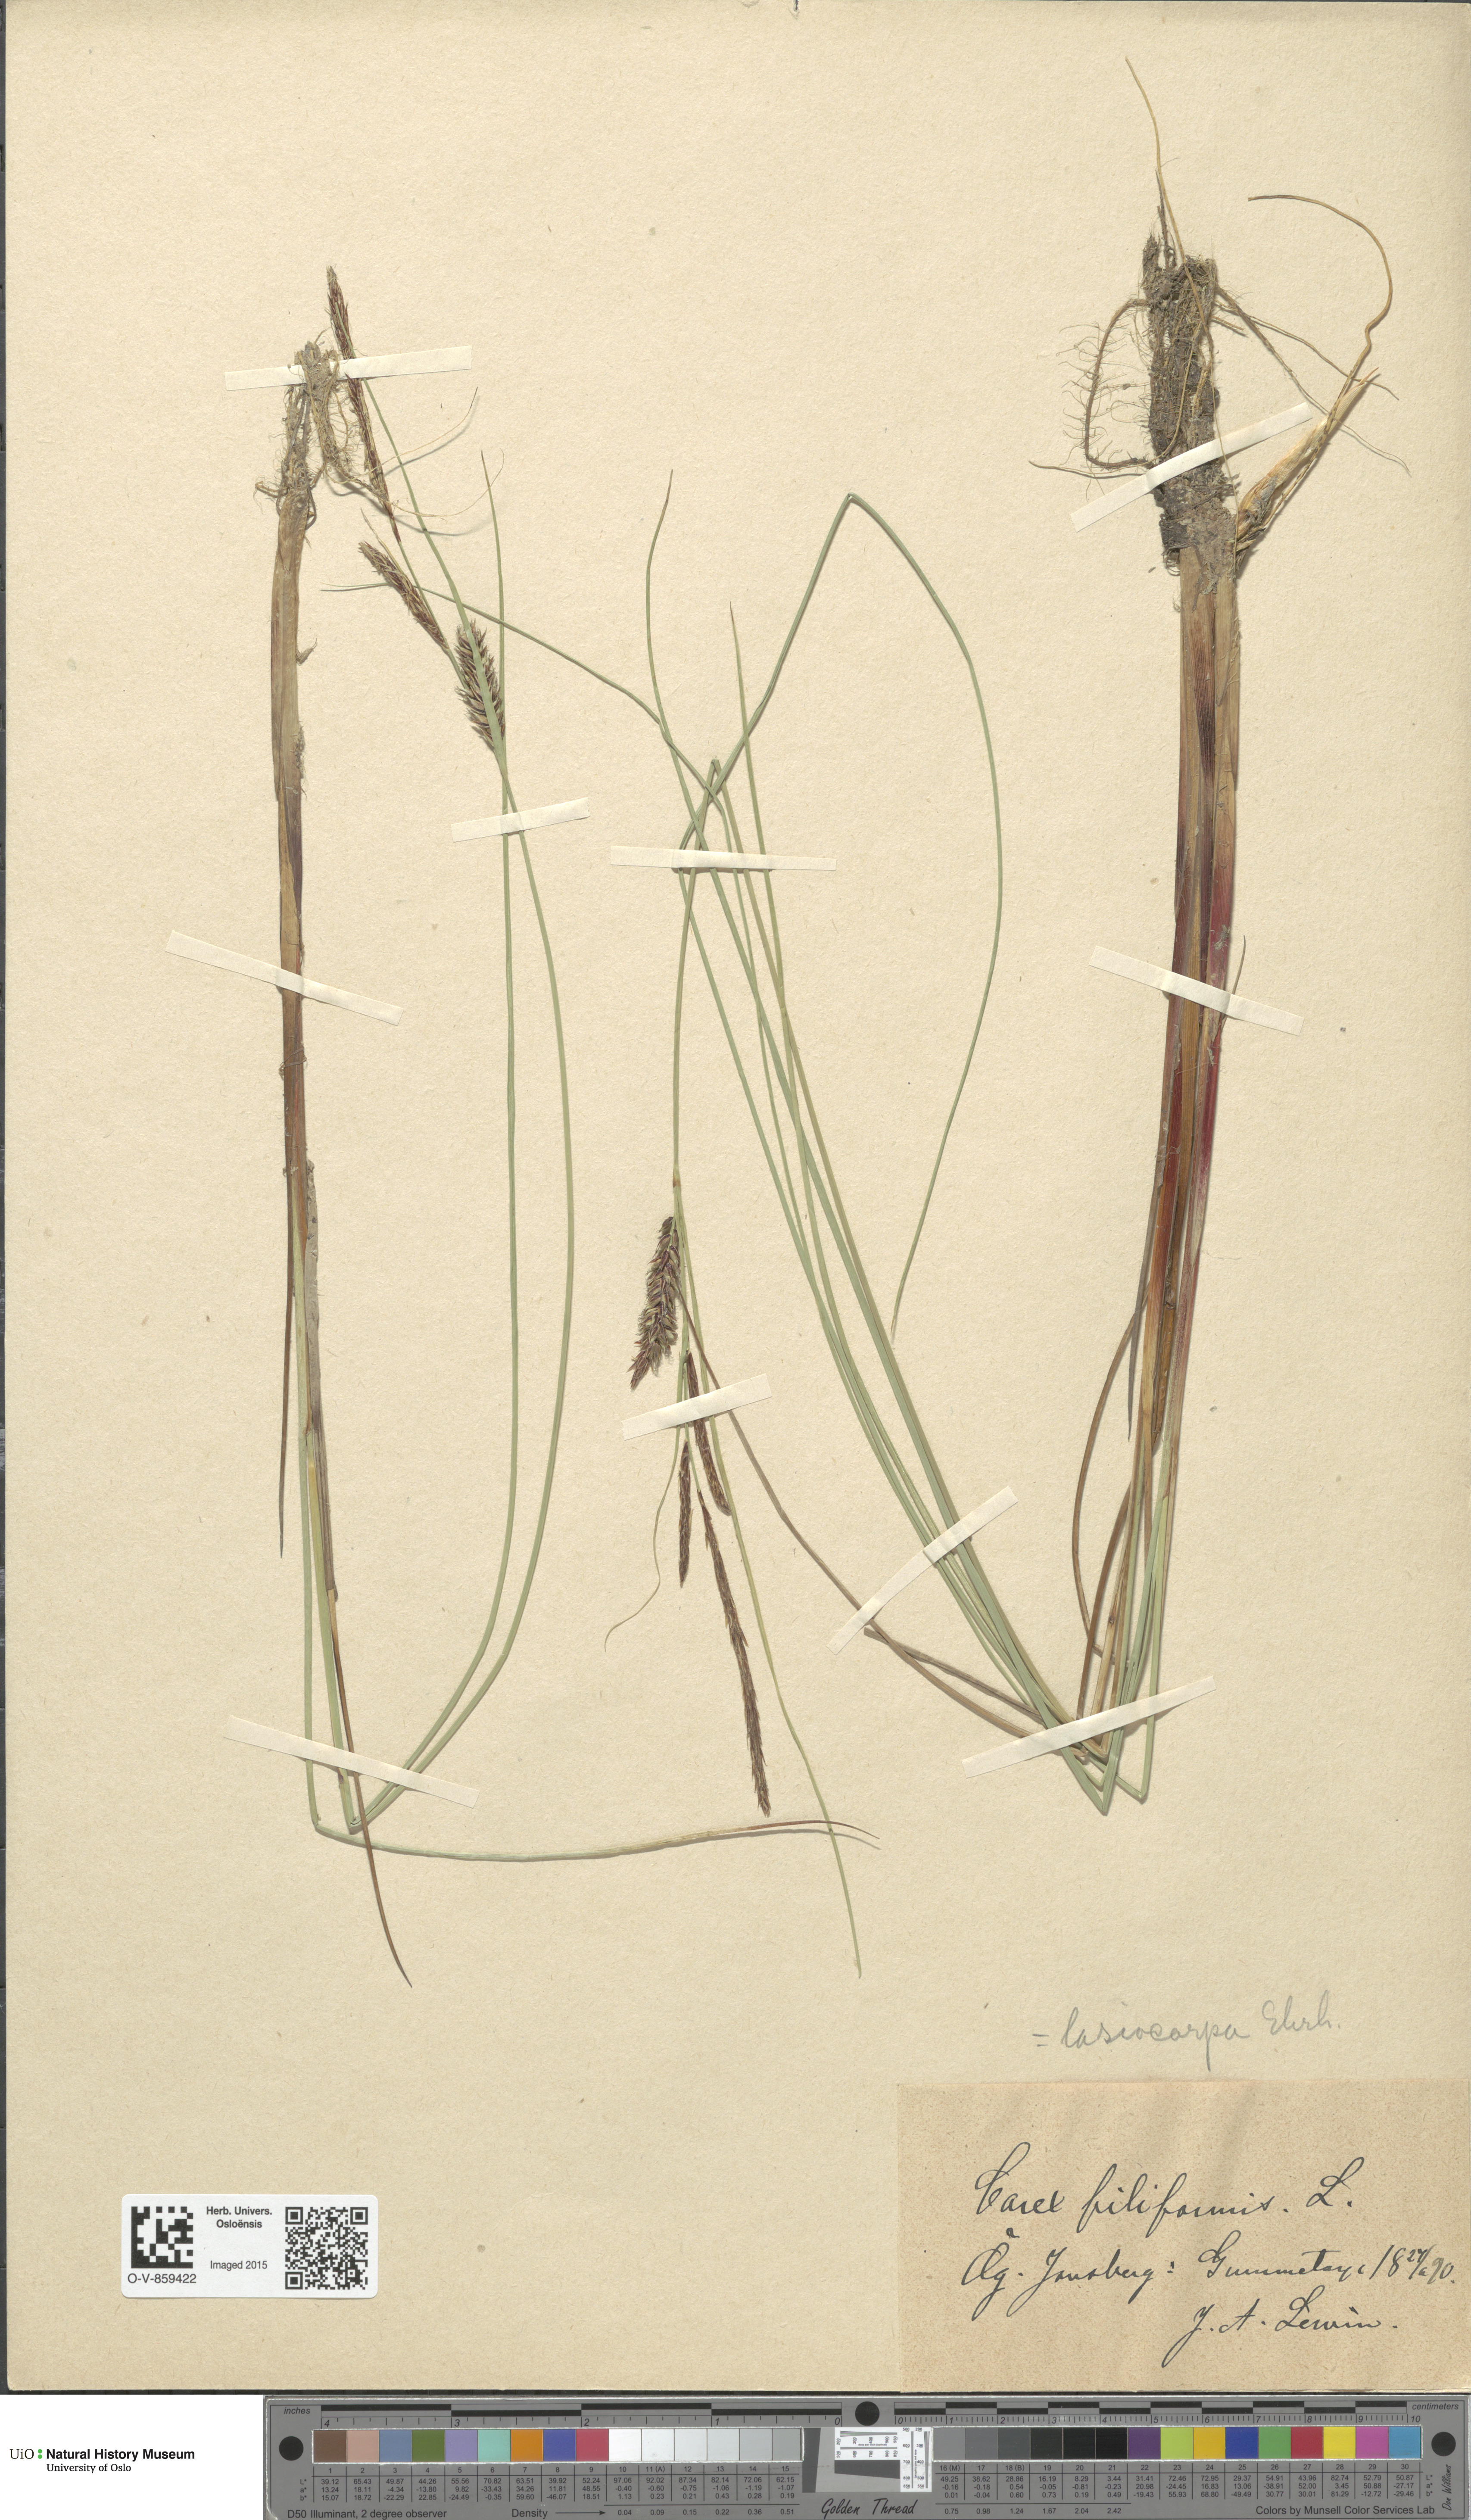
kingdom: Plantae
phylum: Tracheophyta
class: Liliopsida
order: Poales
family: Cyperaceae
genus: Carex
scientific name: Carex lasiocarpa
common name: Slender sedge
